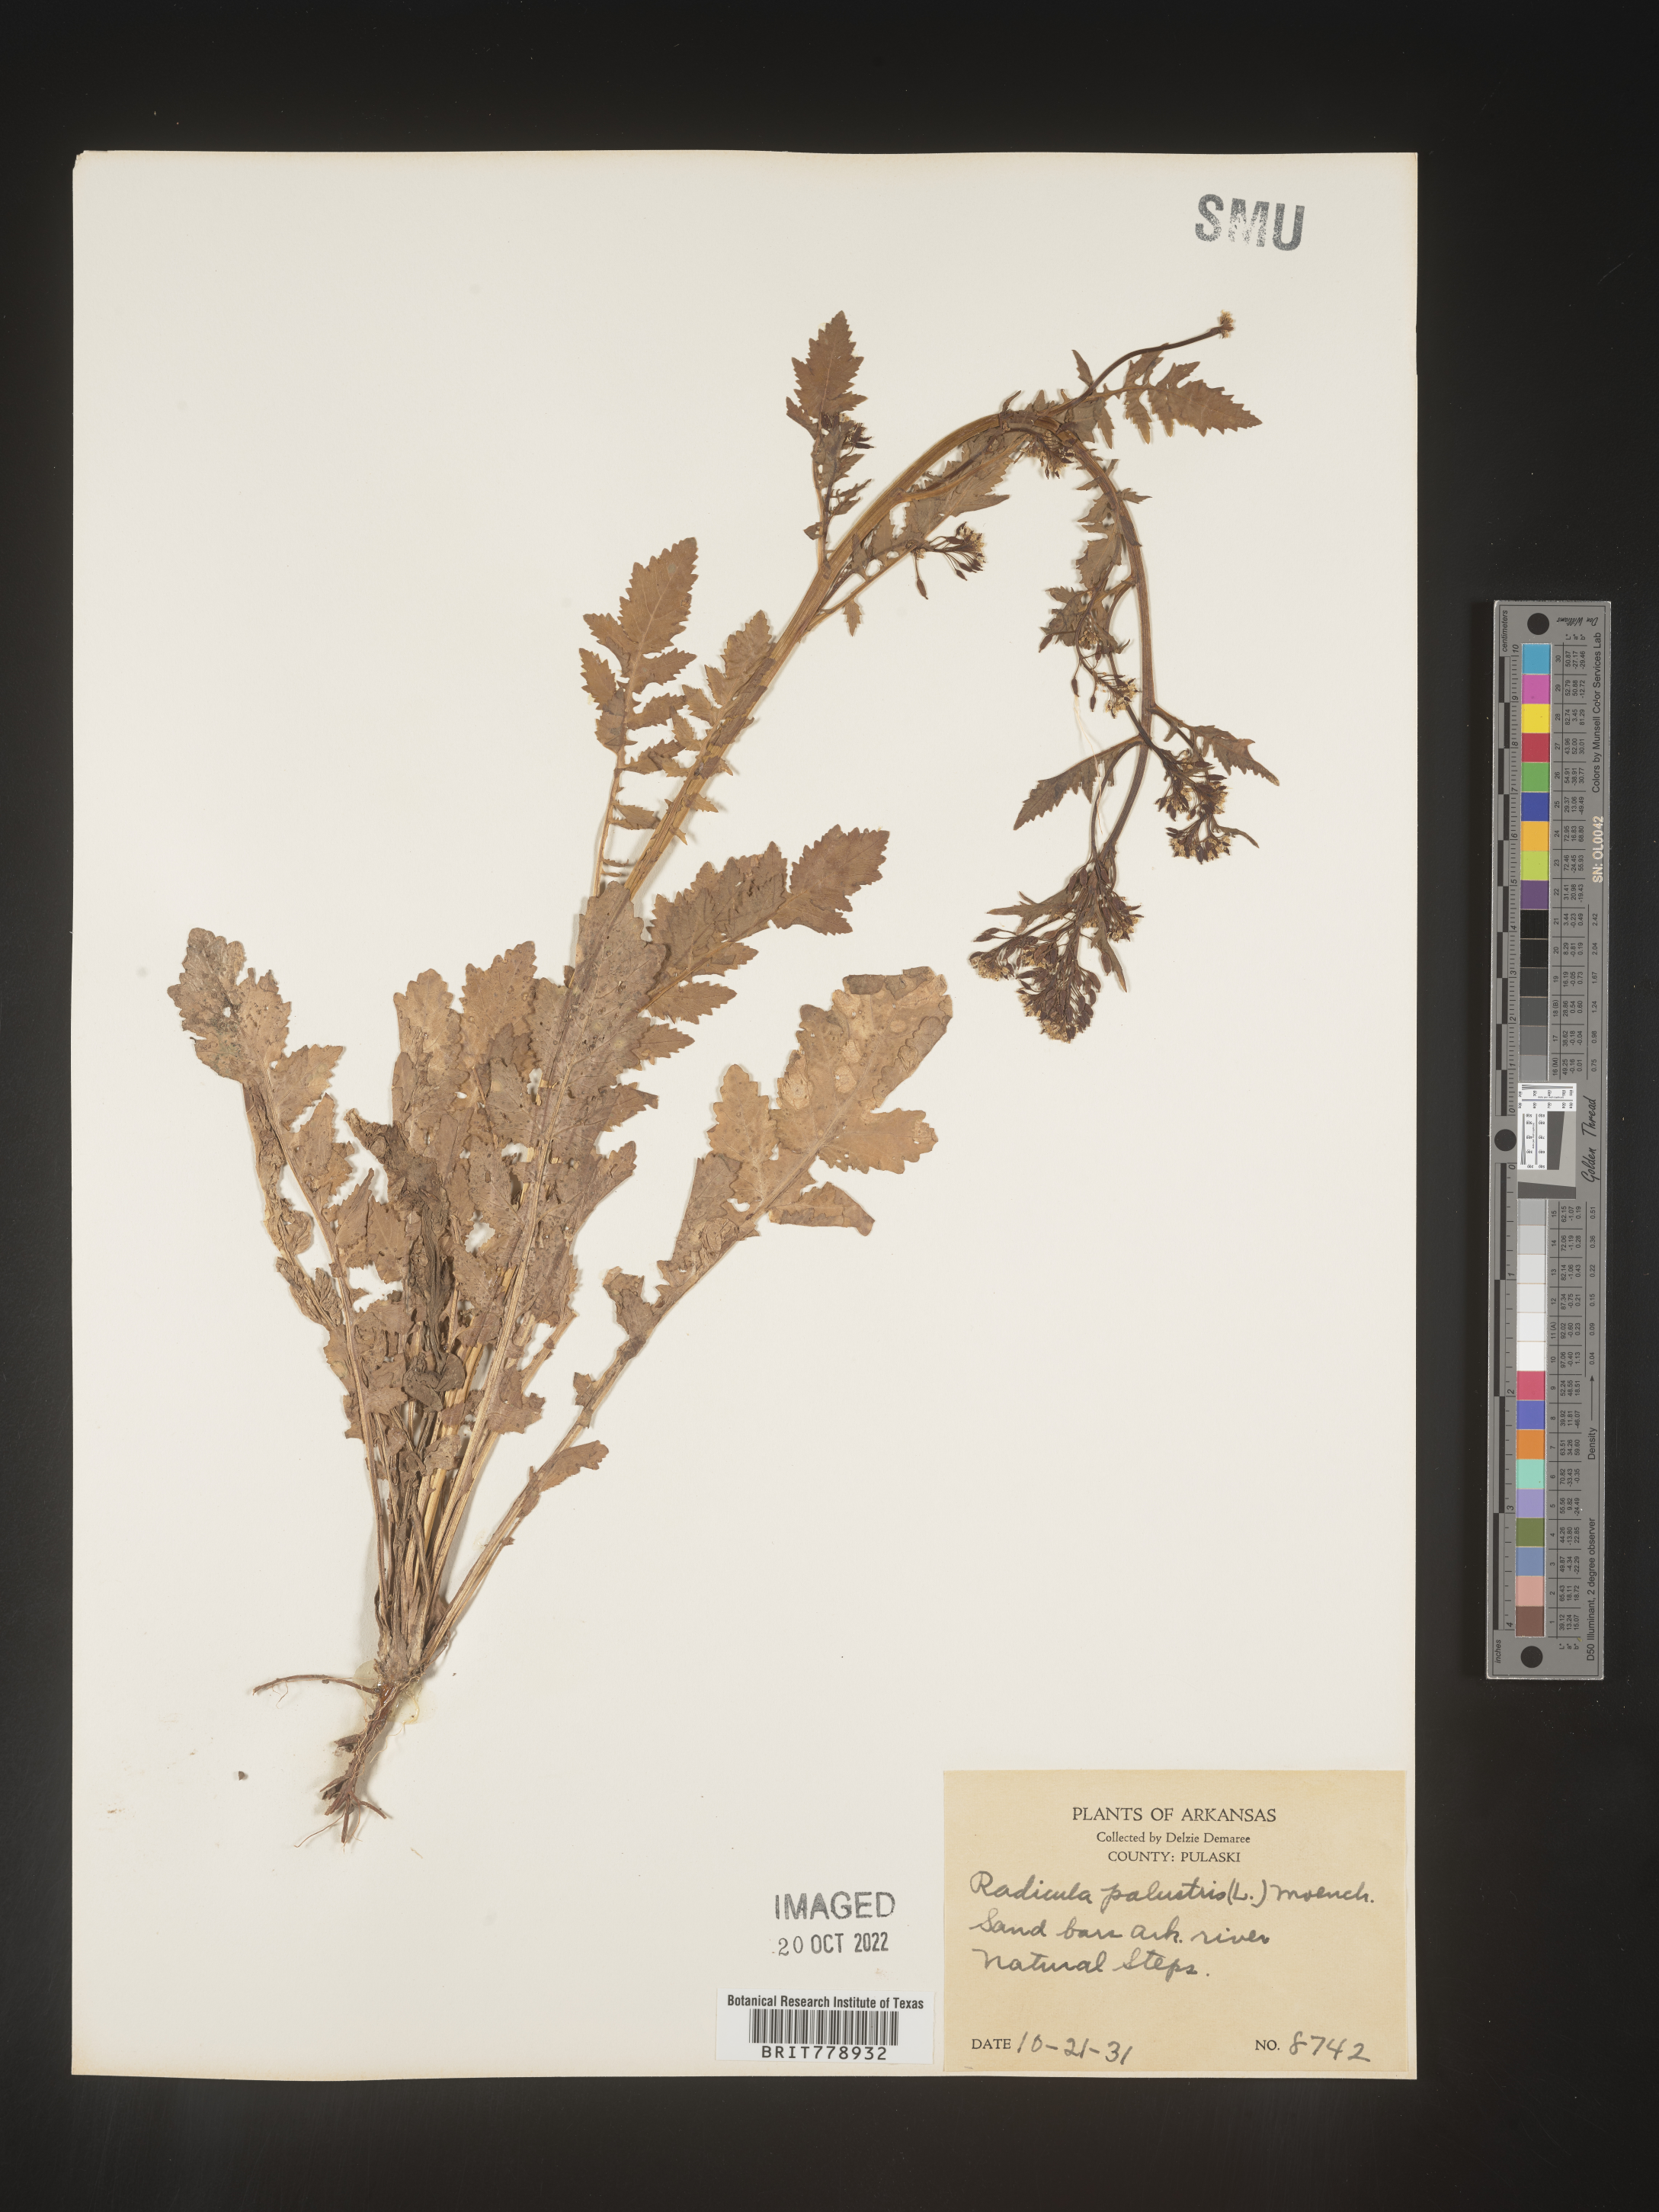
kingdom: Plantae
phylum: Tracheophyta
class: Magnoliopsida
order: Brassicales
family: Brassicaceae
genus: Rorippa
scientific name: Rorippa palustris
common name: Marsh yellow-cress
